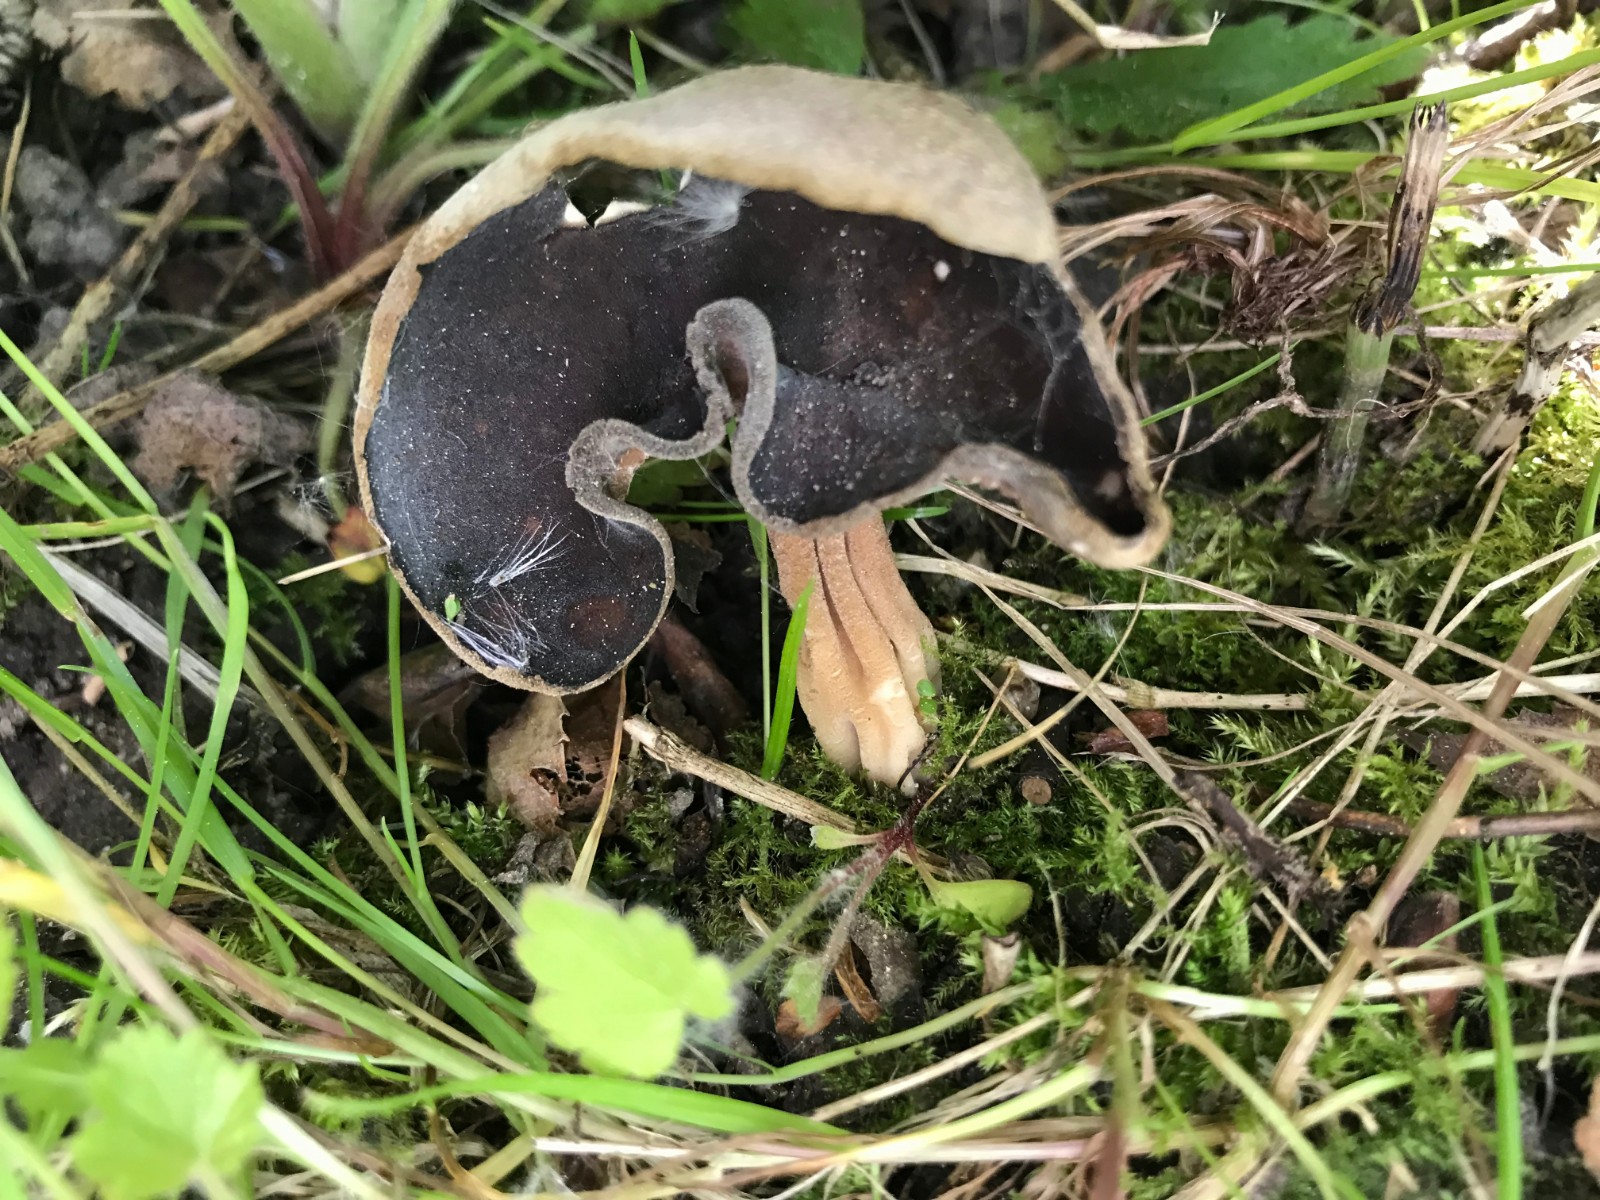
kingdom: Fungi
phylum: Ascomycota
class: Pezizomycetes
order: Pezizales
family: Helvellaceae
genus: Helvella
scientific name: Helvella solitaria
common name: Quélets foldhat
